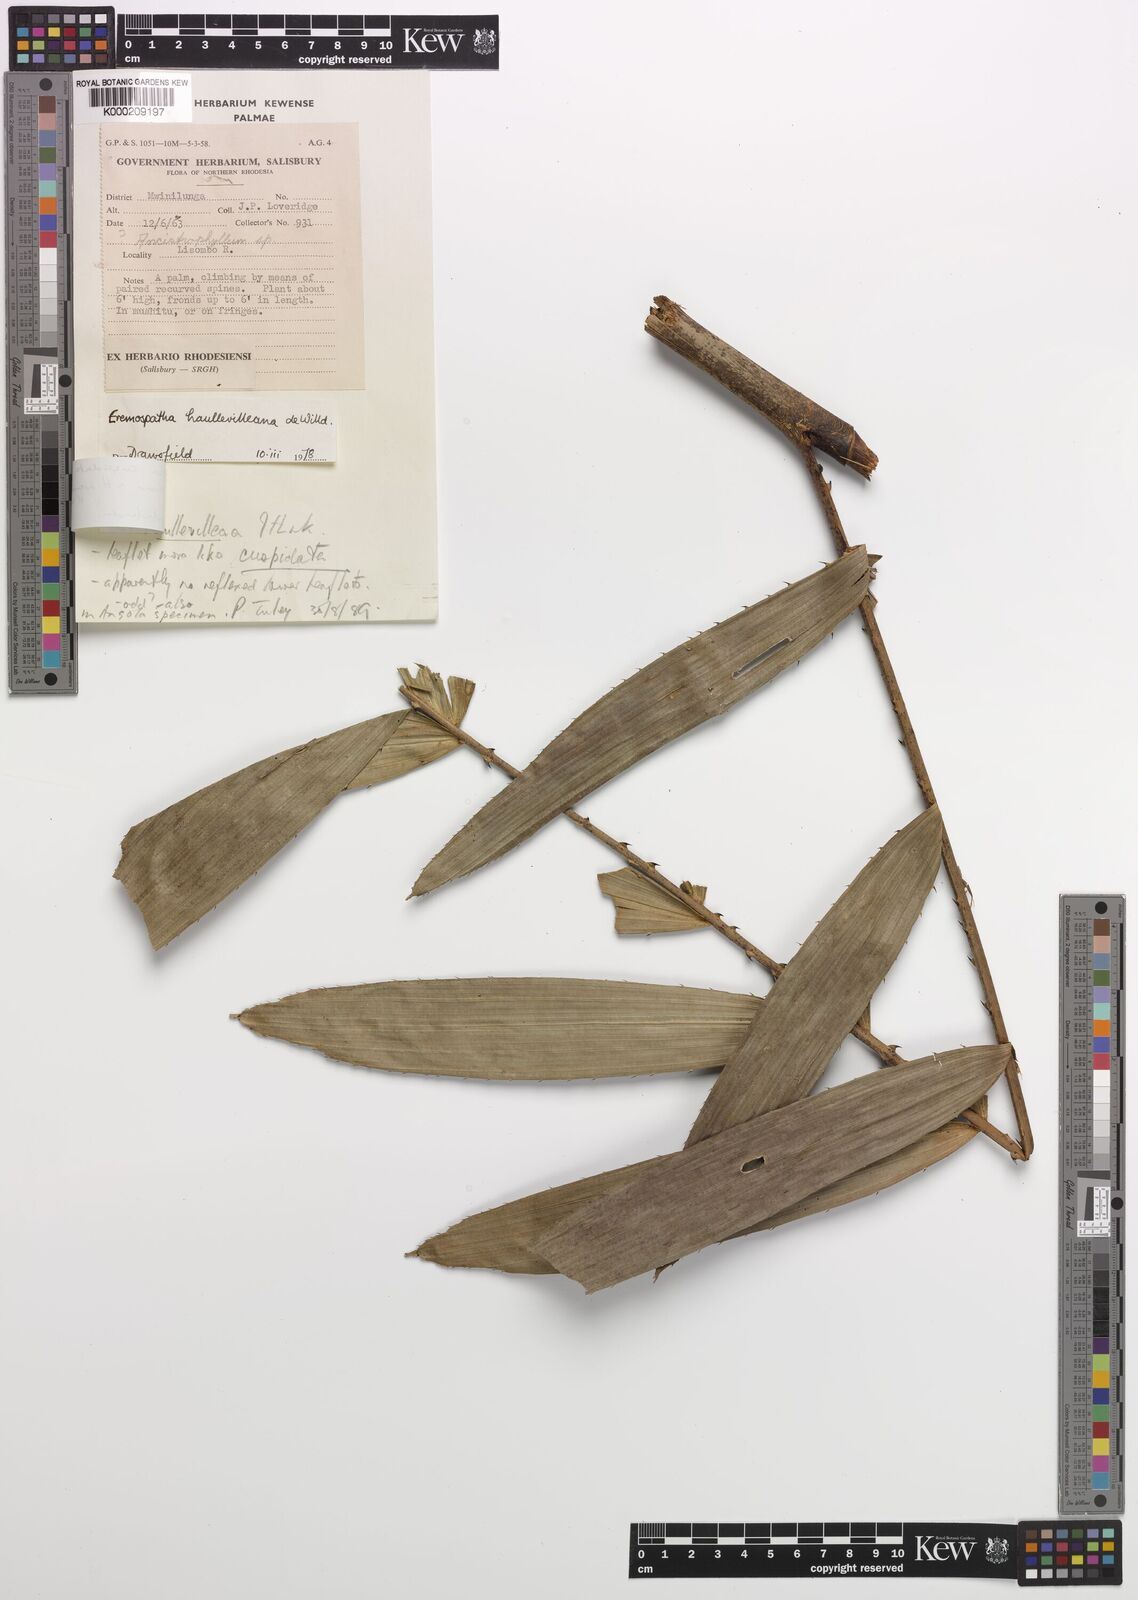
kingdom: Plantae
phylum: Tracheophyta
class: Liliopsida
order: Arecales
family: Arecaceae
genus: Eremospatha
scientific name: Eremospatha cuspidata
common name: Rattan
